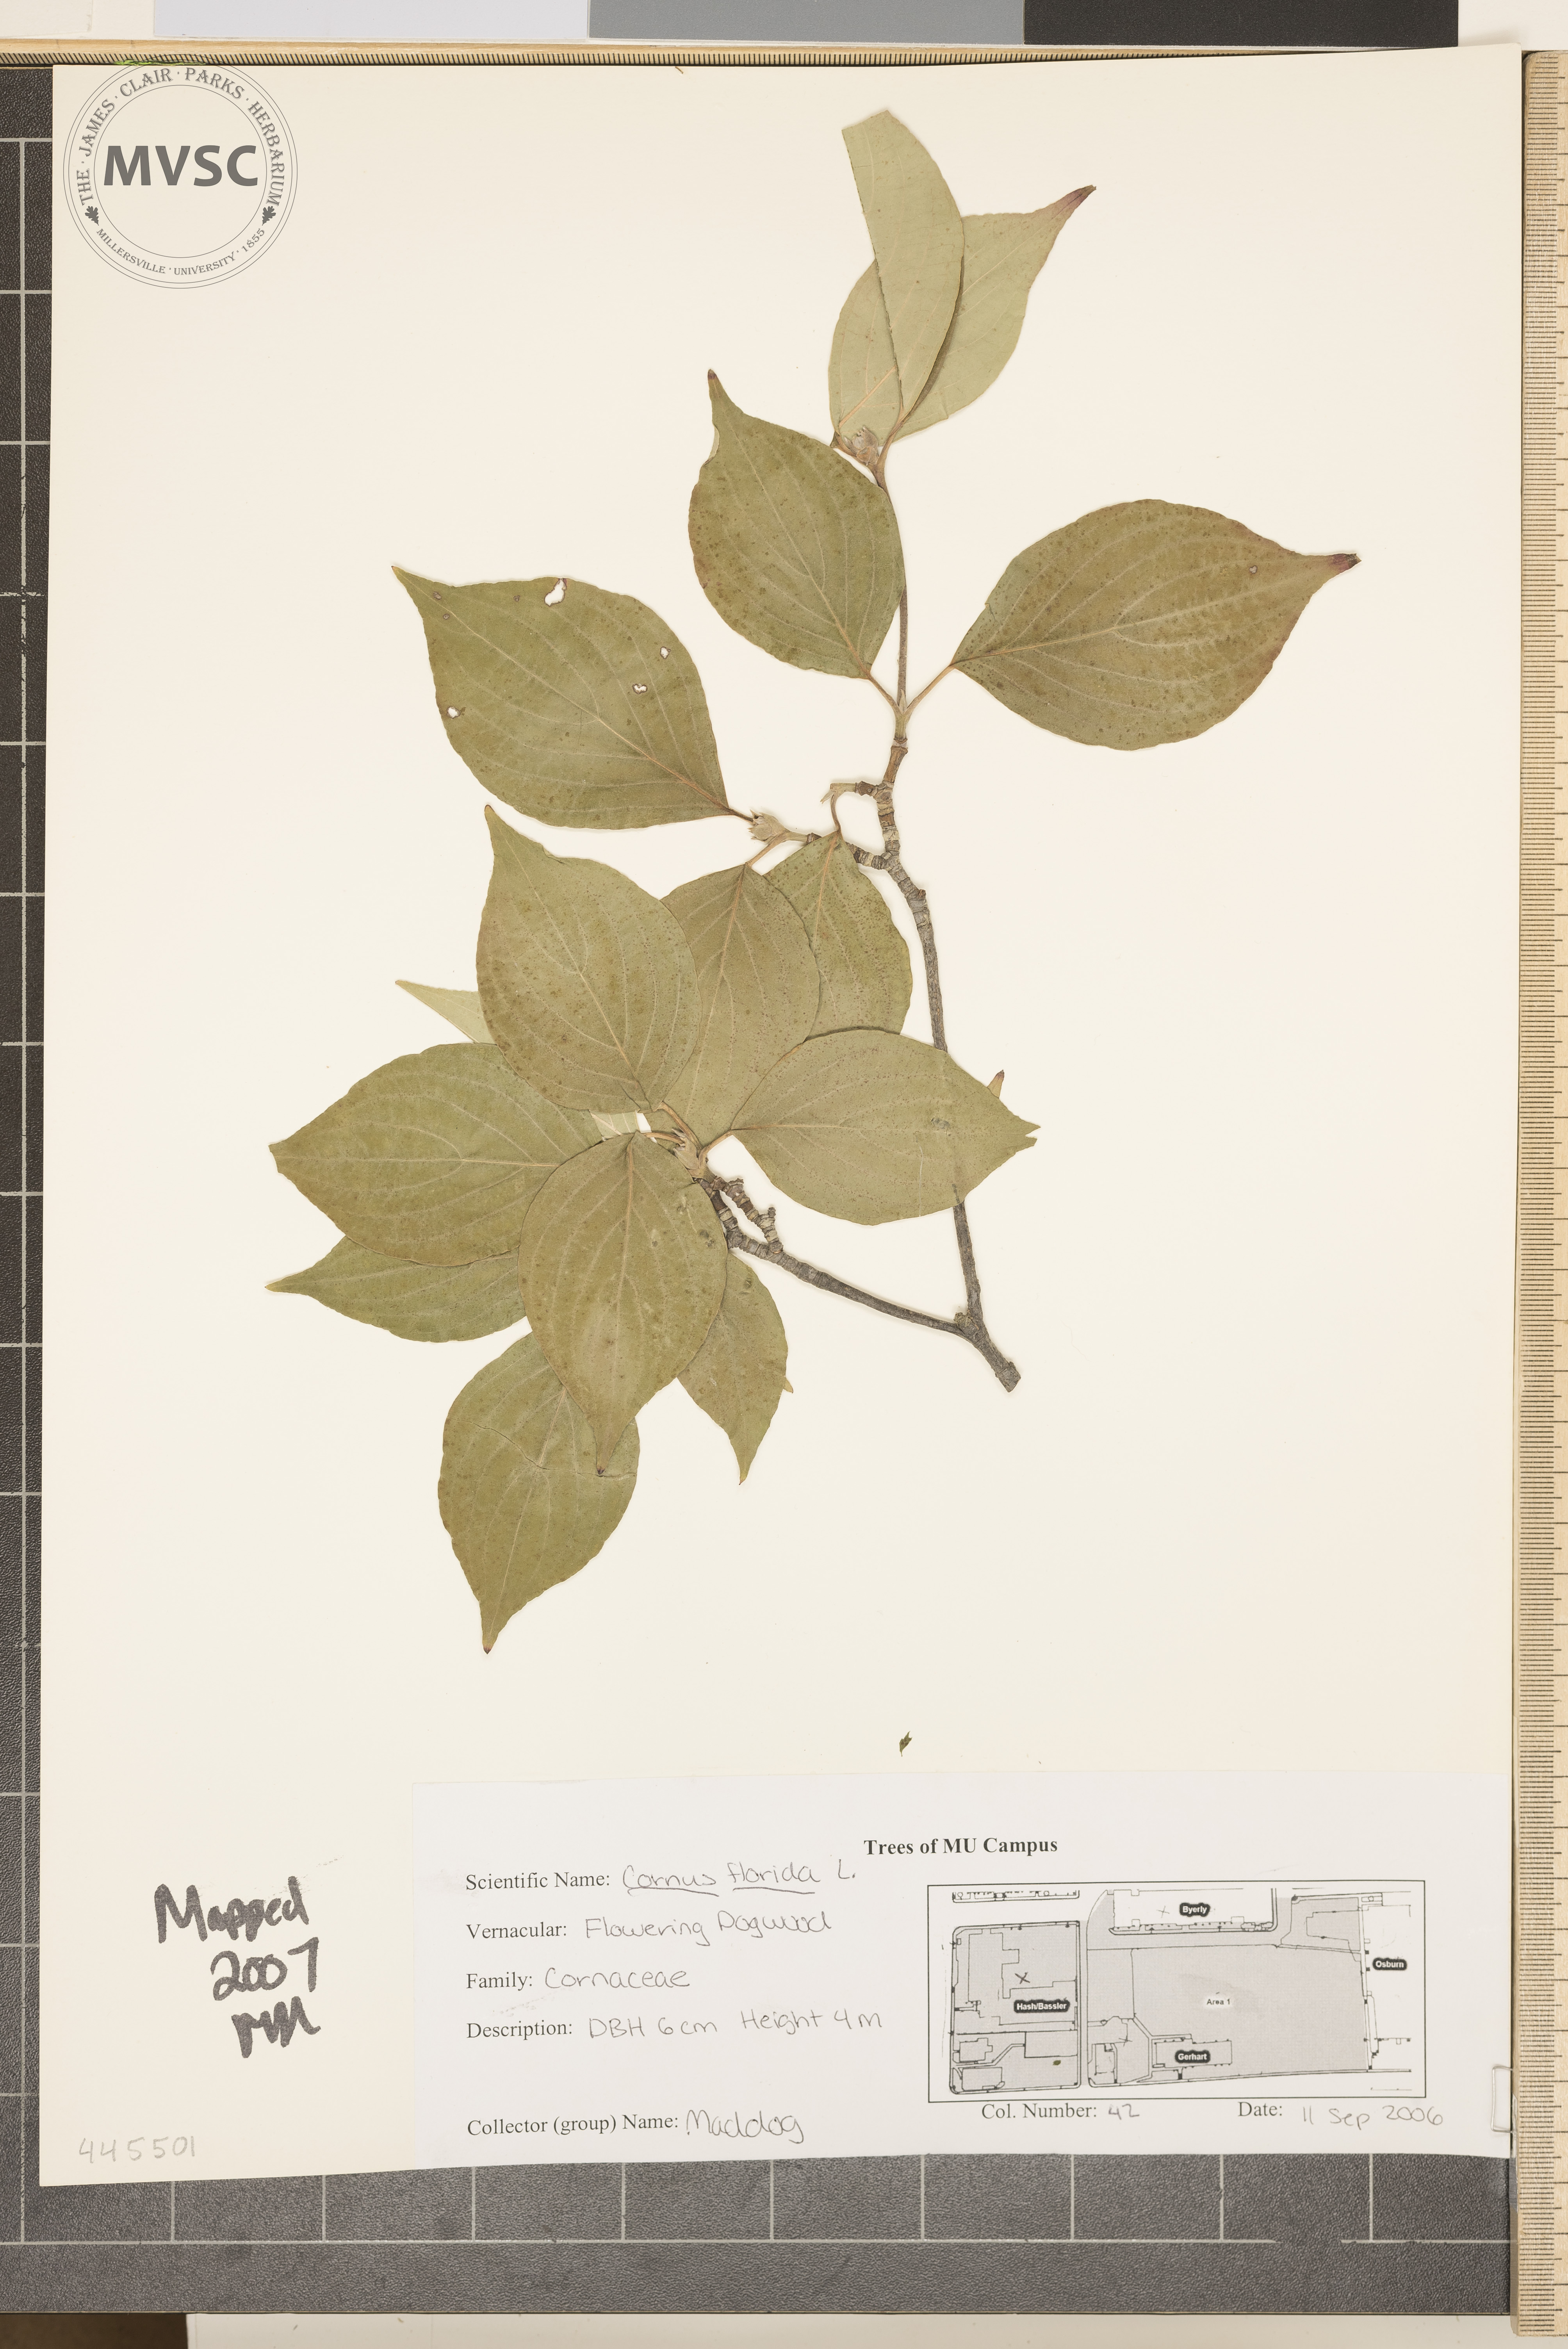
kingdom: Plantae
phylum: Tracheophyta
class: Magnoliopsida
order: Cornales
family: Cornaceae
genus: Cornus
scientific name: Cornus florida
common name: Flowering Dogwood
